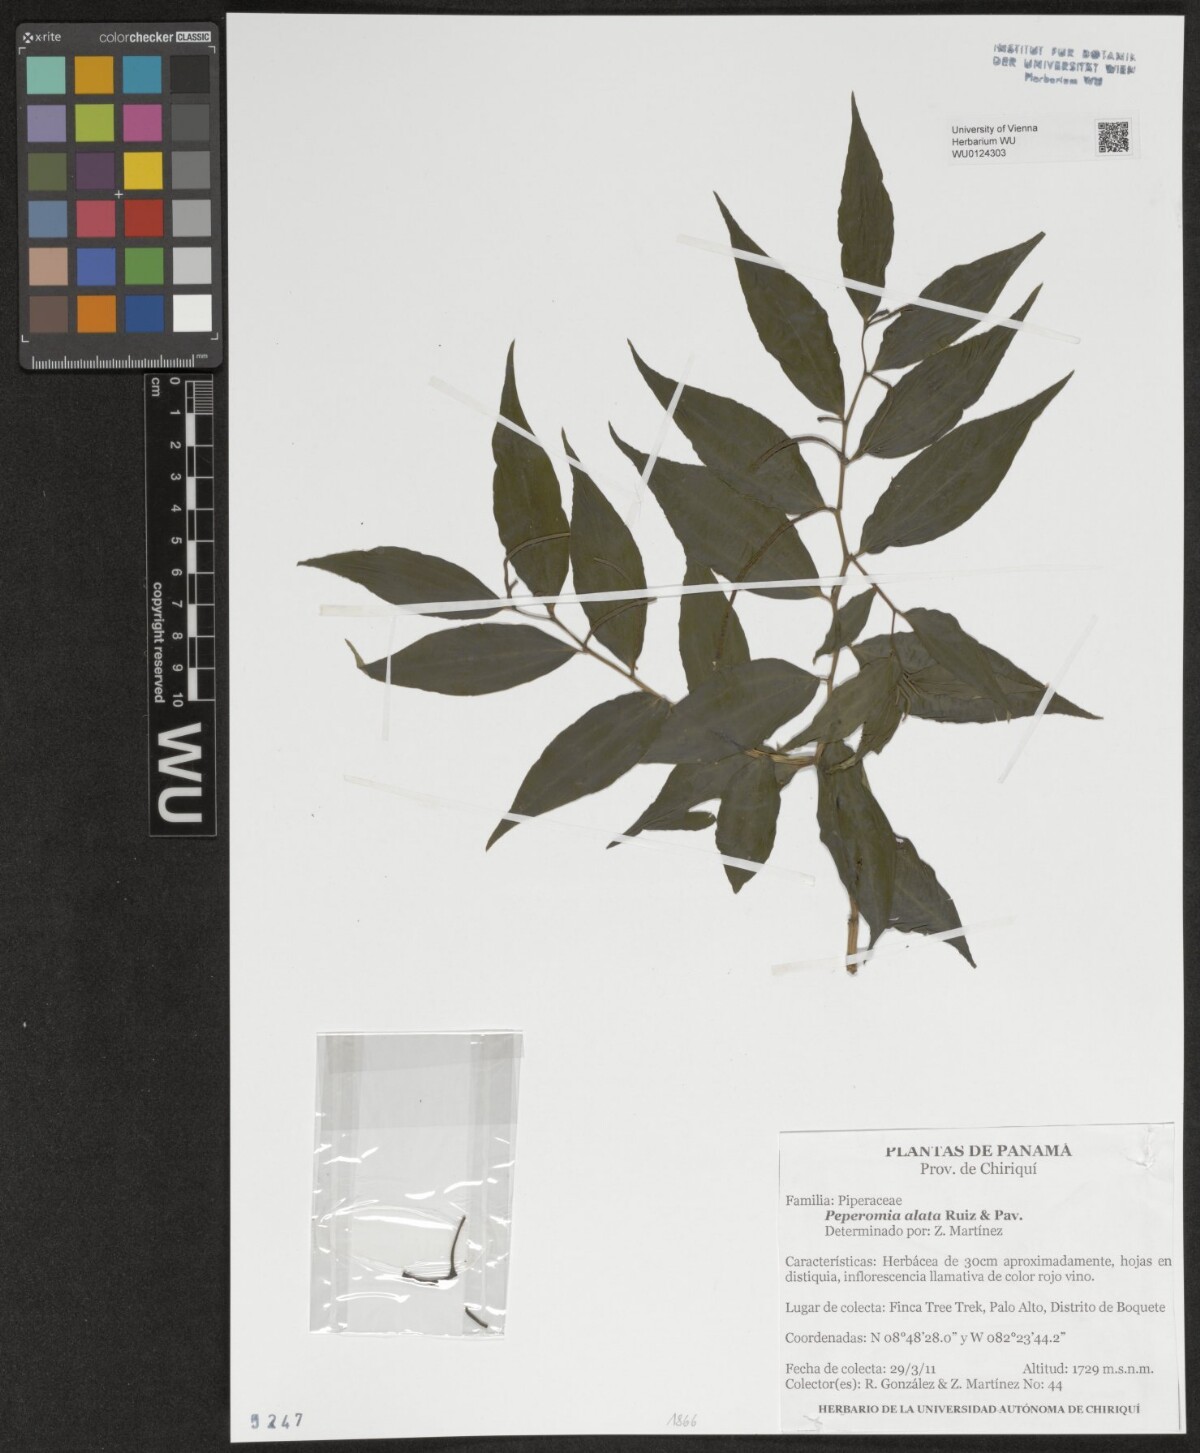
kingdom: Plantae
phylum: Tracheophyta
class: Magnoliopsida
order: Piperales
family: Piperaceae
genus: Peperomia
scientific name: Peperomia alata
